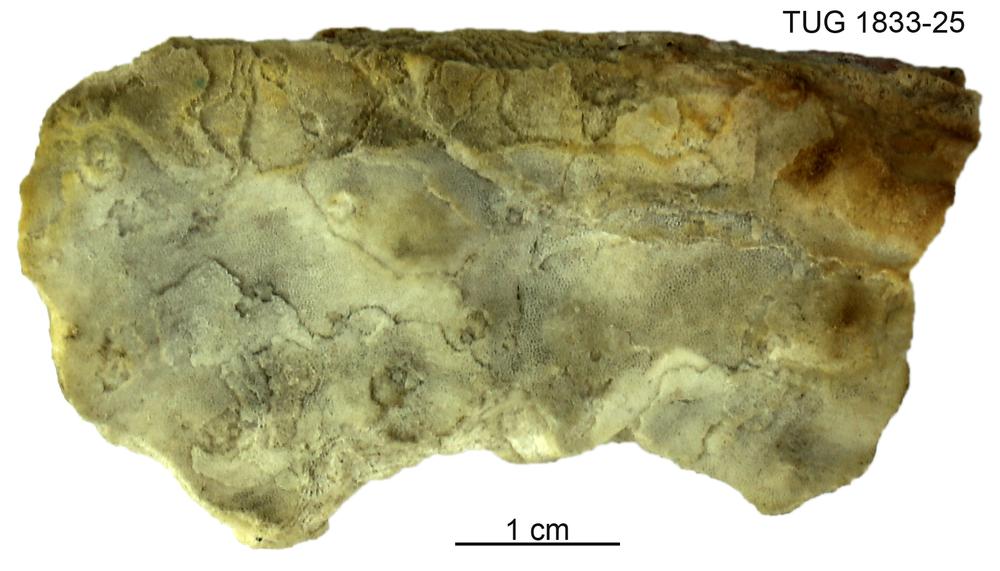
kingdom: Animalia
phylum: Porifera
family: Clathrodictyidae
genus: Clathrodictyon
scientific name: Clathrodictyon mammillatum
